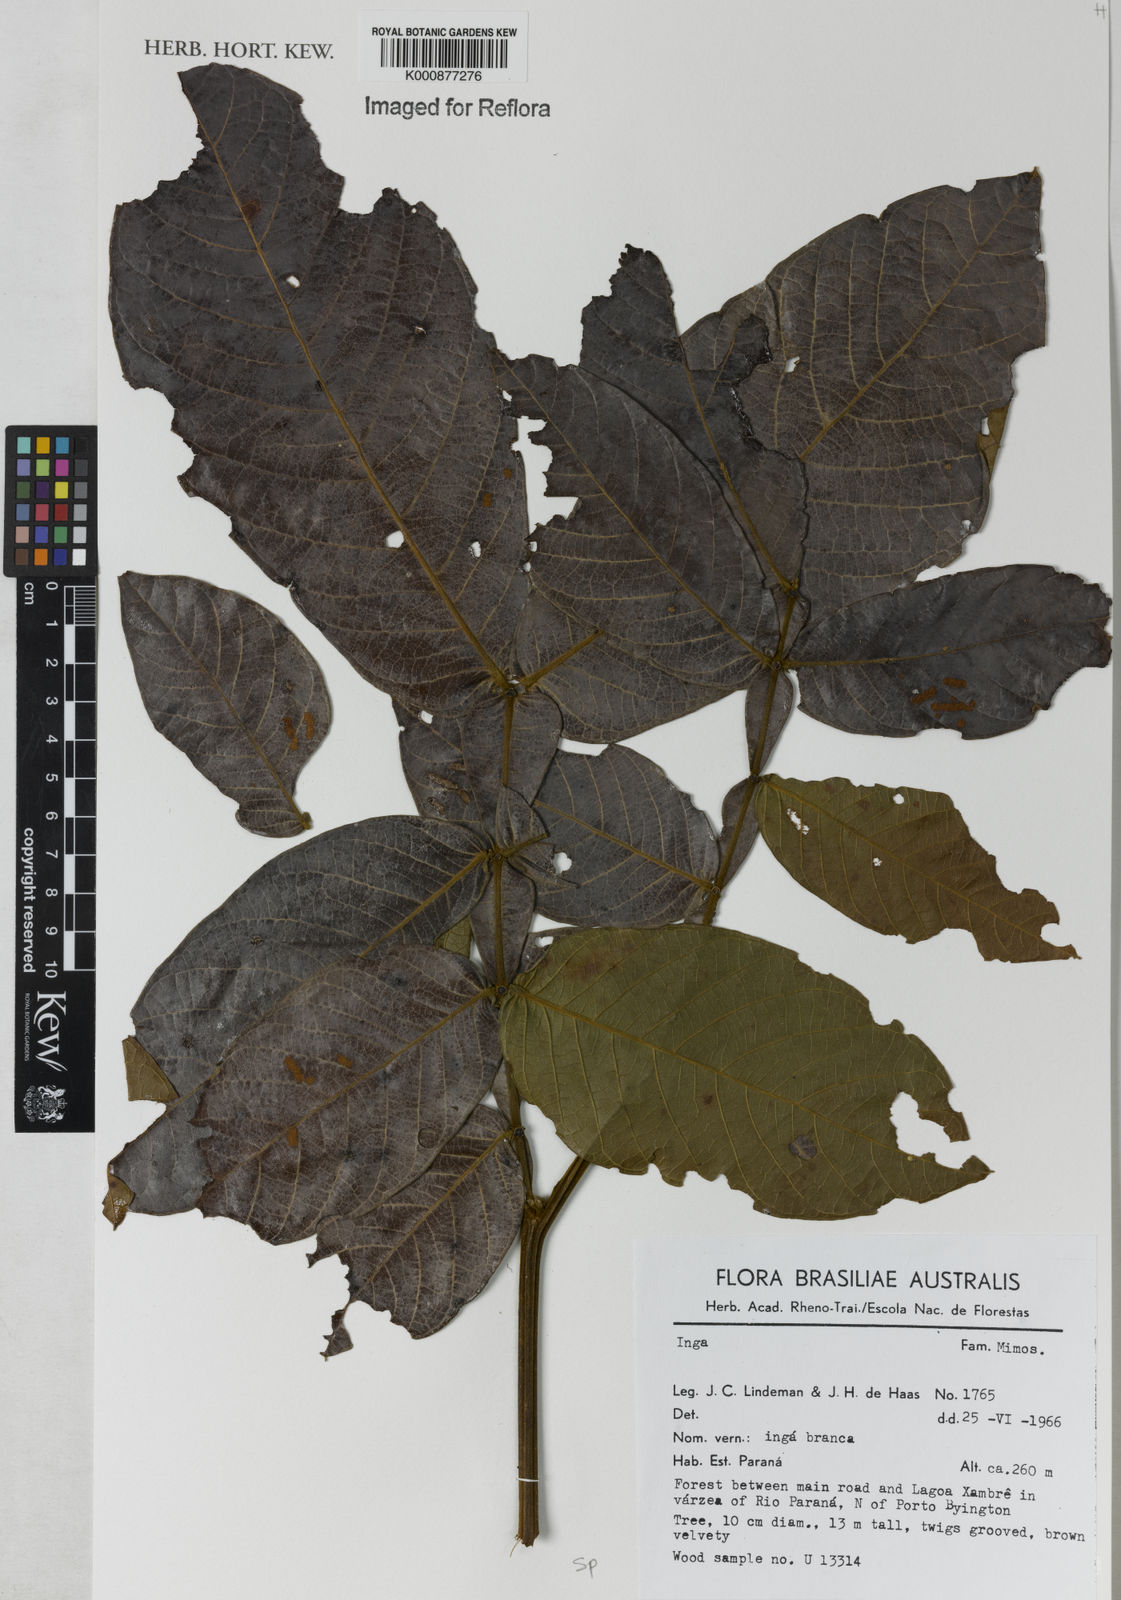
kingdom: Plantae
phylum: Tracheophyta
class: Magnoliopsida
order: Fabales
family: Fabaceae
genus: Inga
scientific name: Inga
